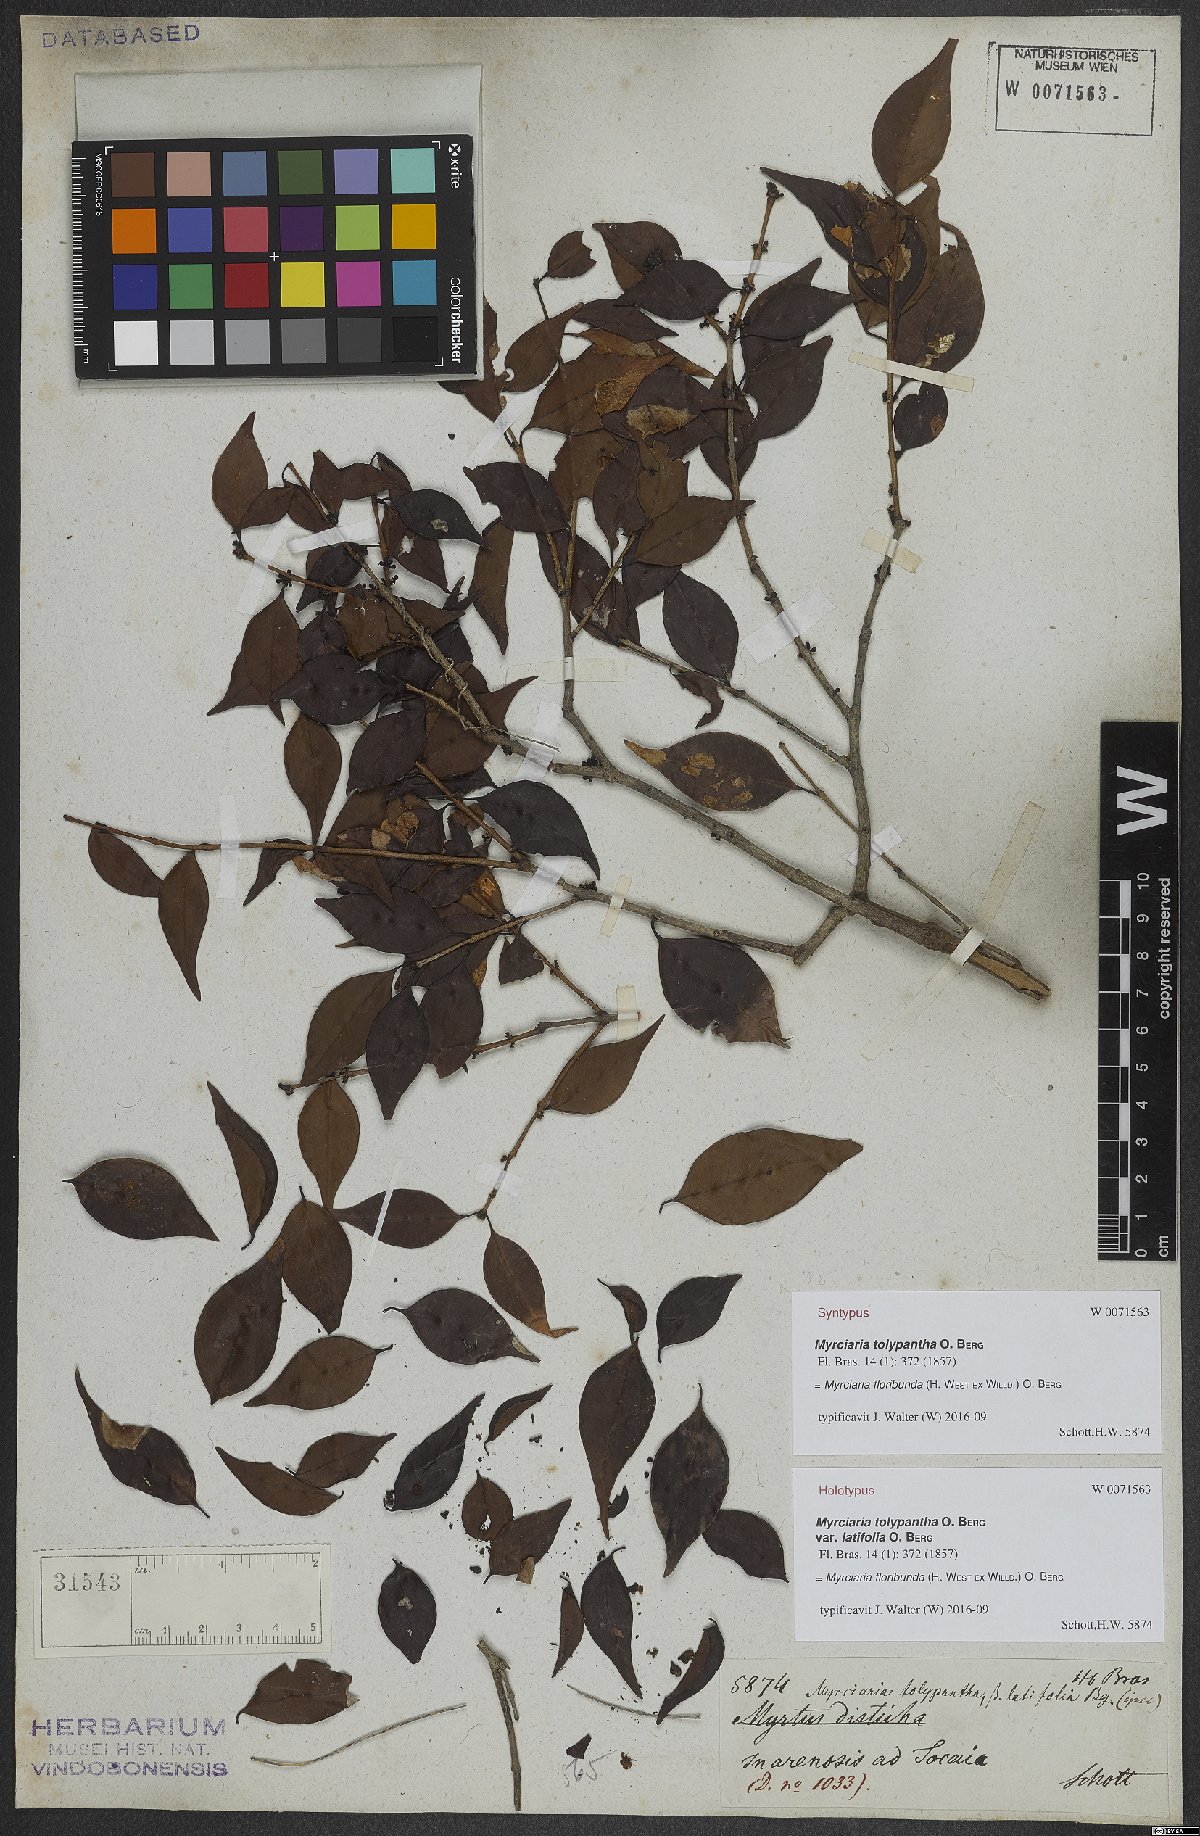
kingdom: Plantae
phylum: Tracheophyta
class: Magnoliopsida
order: Myrtales
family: Myrtaceae
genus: Myrciaria
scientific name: Myrciaria floribunda
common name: Guavaberry
